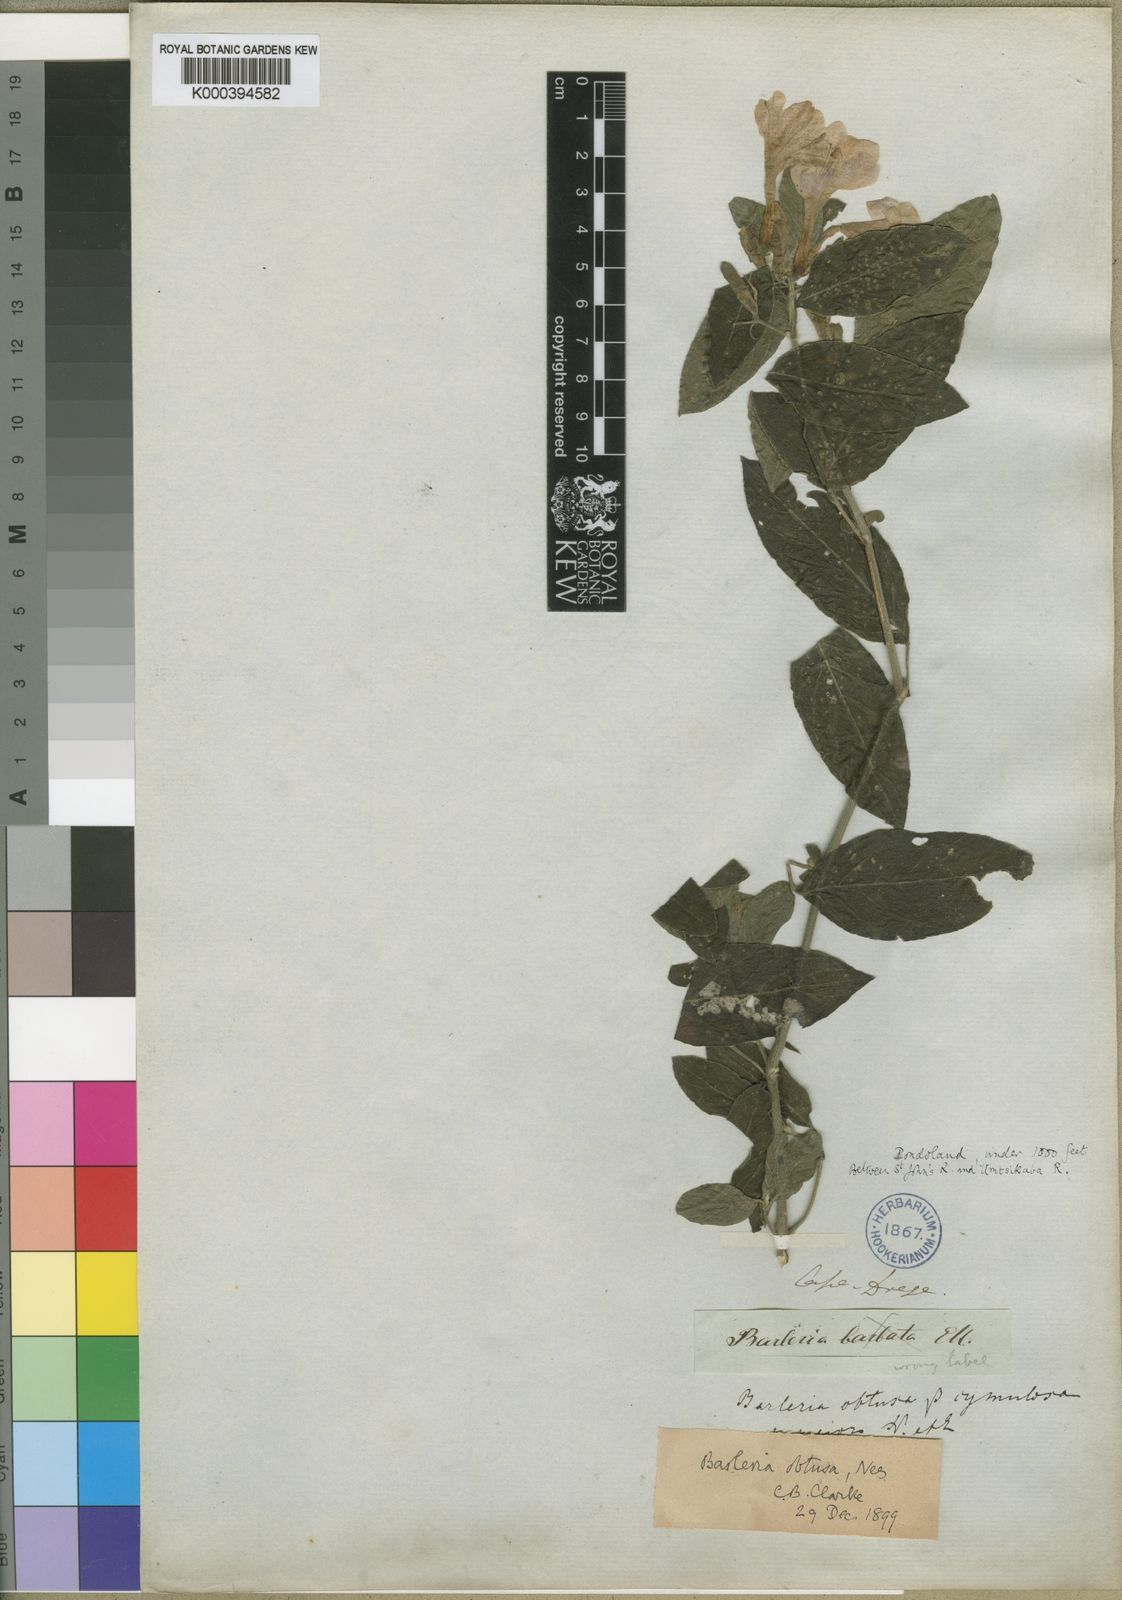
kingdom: Plantae
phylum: Tracheophyta
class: Magnoliopsida
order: Lamiales
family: Acanthaceae
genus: Barleria
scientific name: Barleria obtusa
